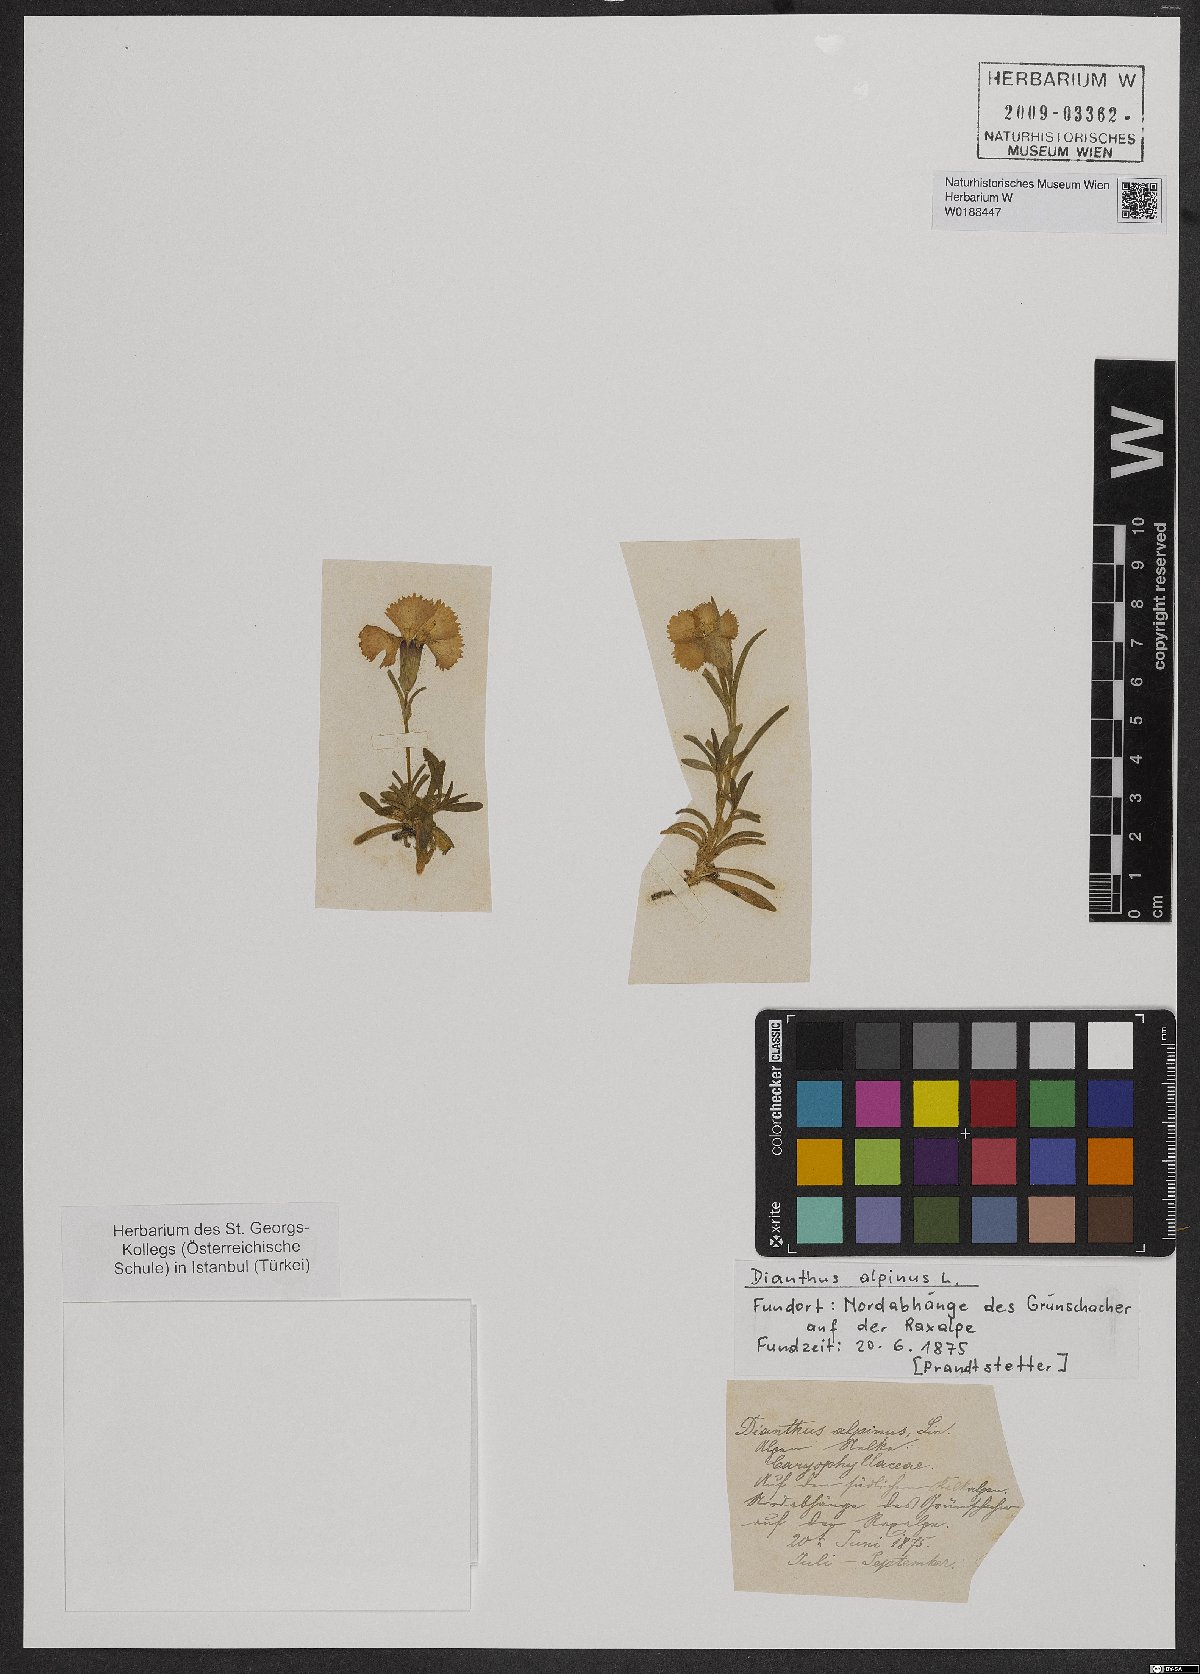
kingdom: Plantae
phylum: Tracheophyta
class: Magnoliopsida
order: Caryophyllales
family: Caryophyllaceae
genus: Dianthus
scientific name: Dianthus alpinus
